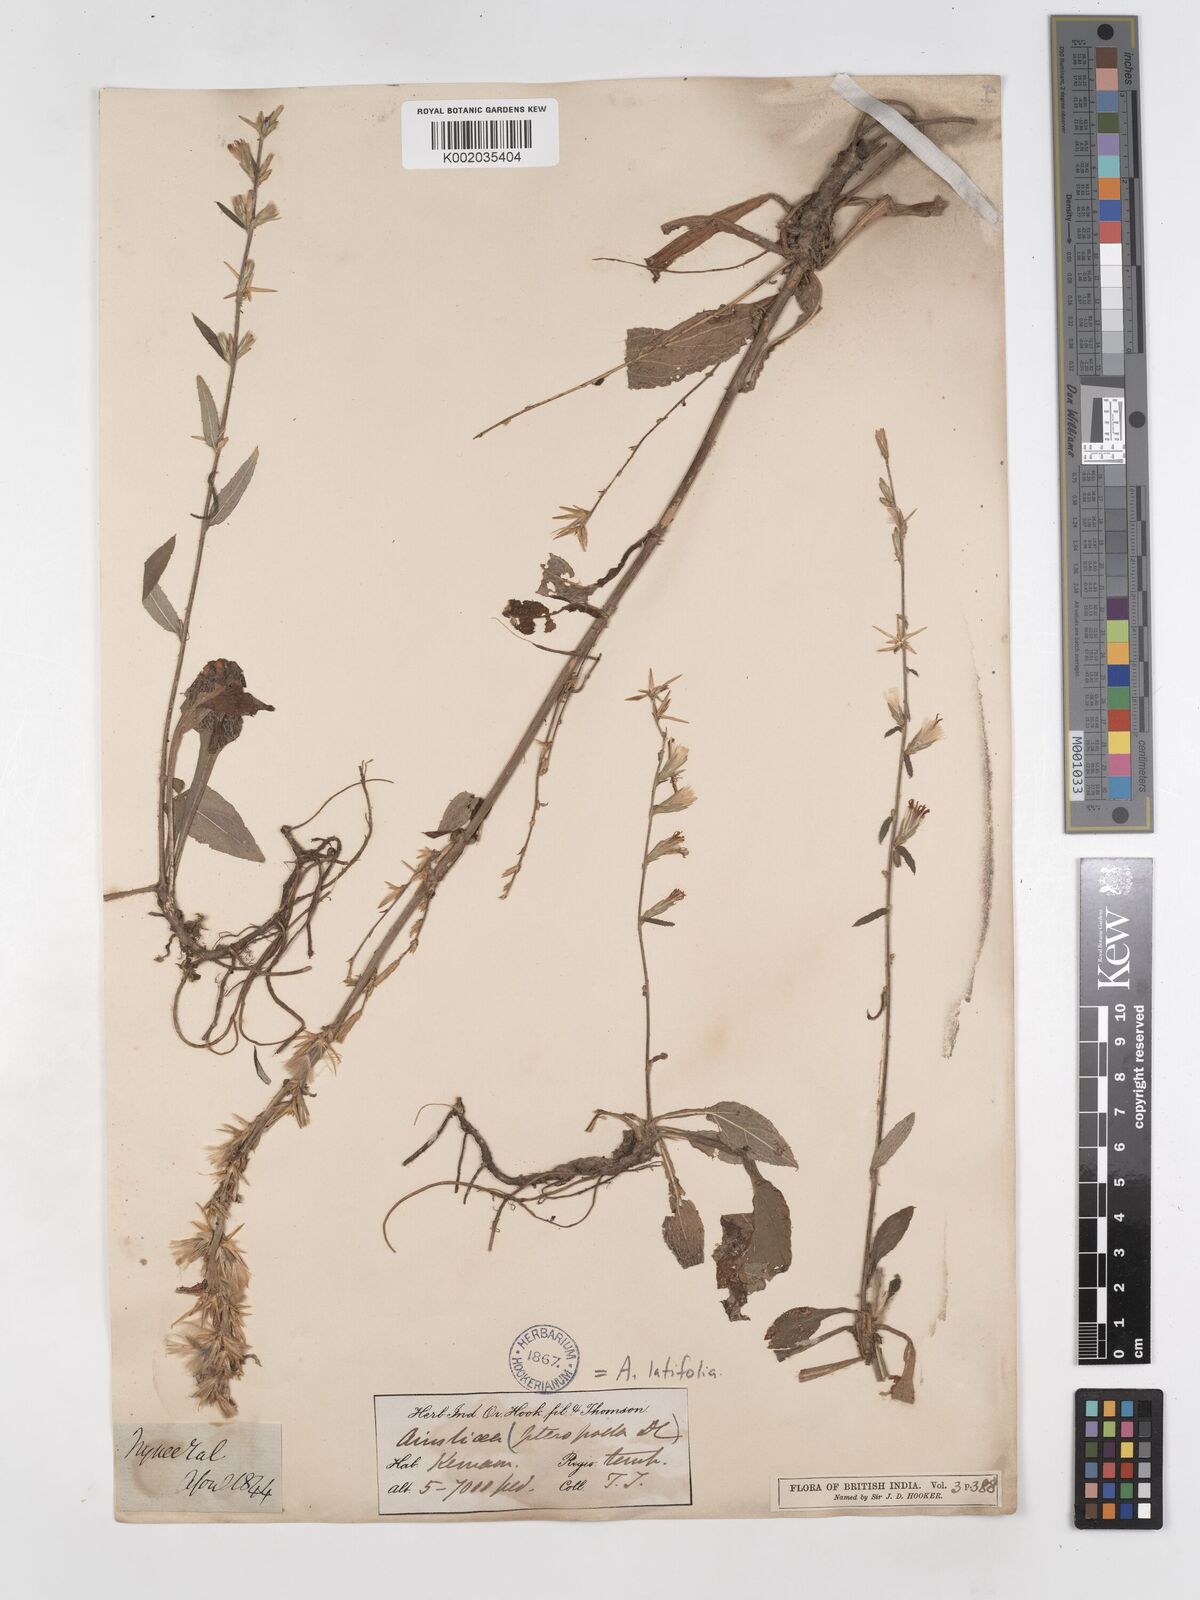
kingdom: Plantae
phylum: Tracheophyta
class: Magnoliopsida
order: Asterales
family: Asteraceae
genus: Ainsliaea
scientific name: Ainsliaea latifolia
